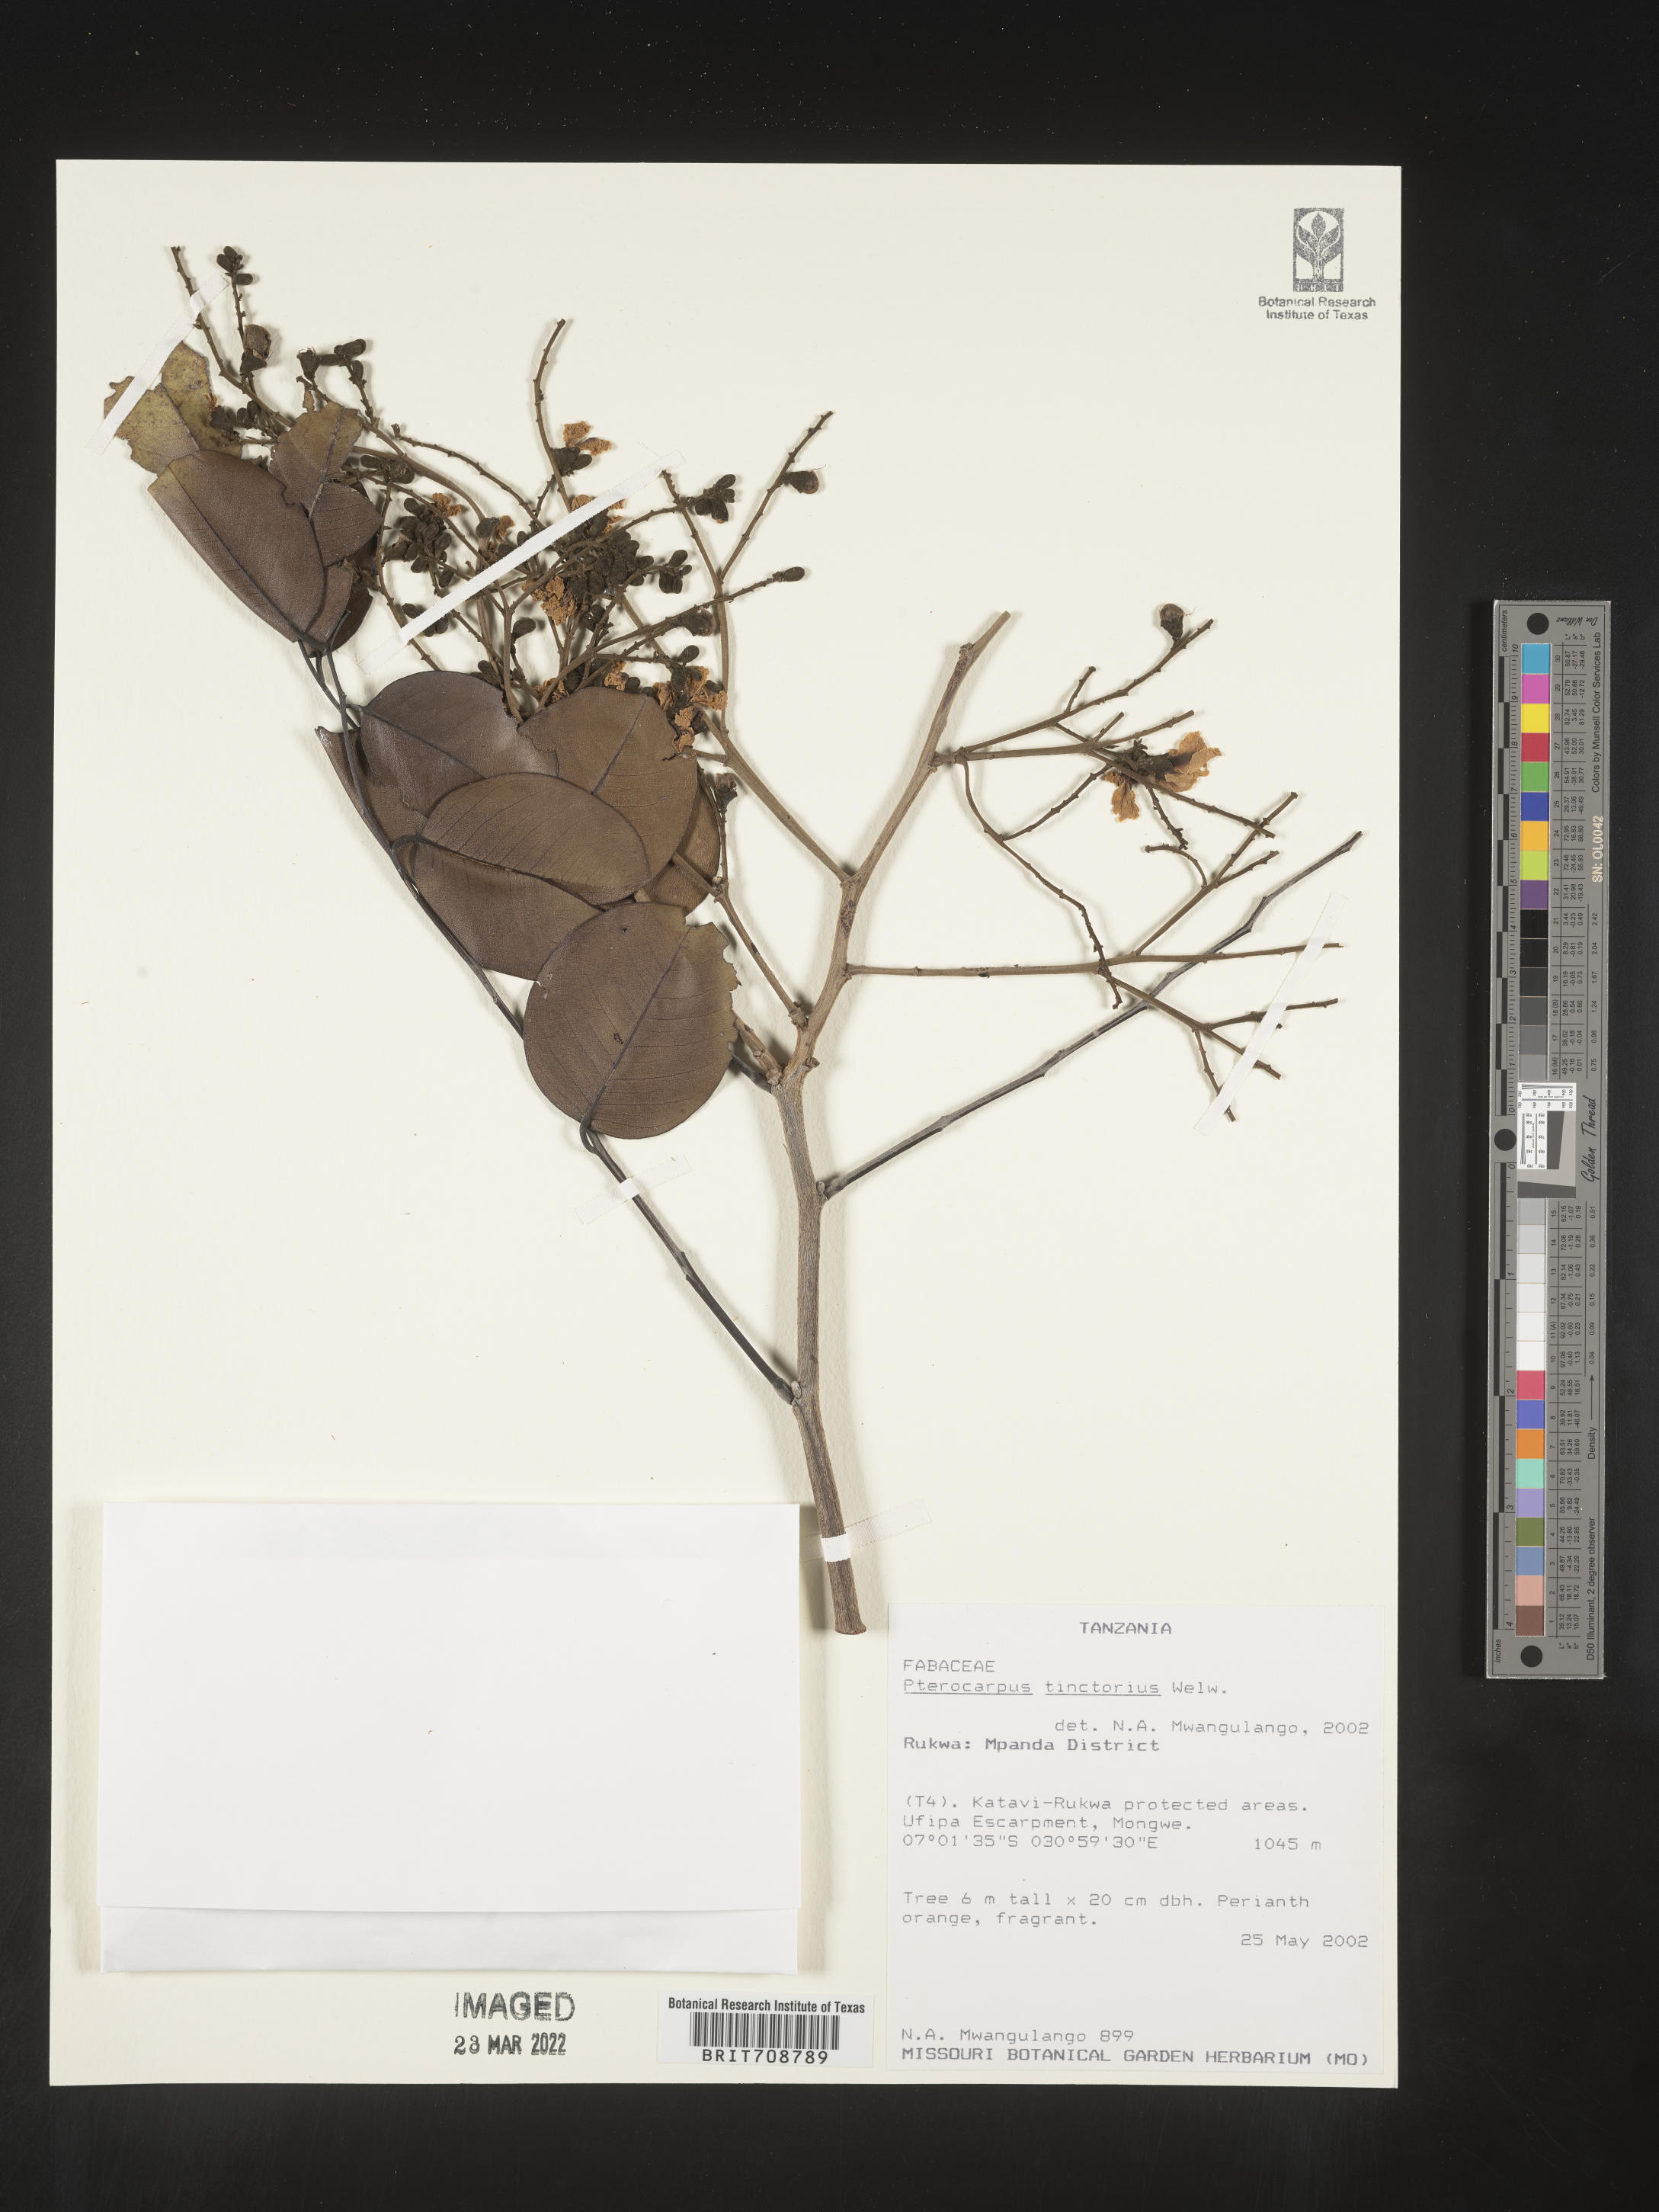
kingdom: Plantae
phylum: Tracheophyta
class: Magnoliopsida
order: Fabales
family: Fabaceae
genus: Pterocarpus
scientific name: Pterocarpus
